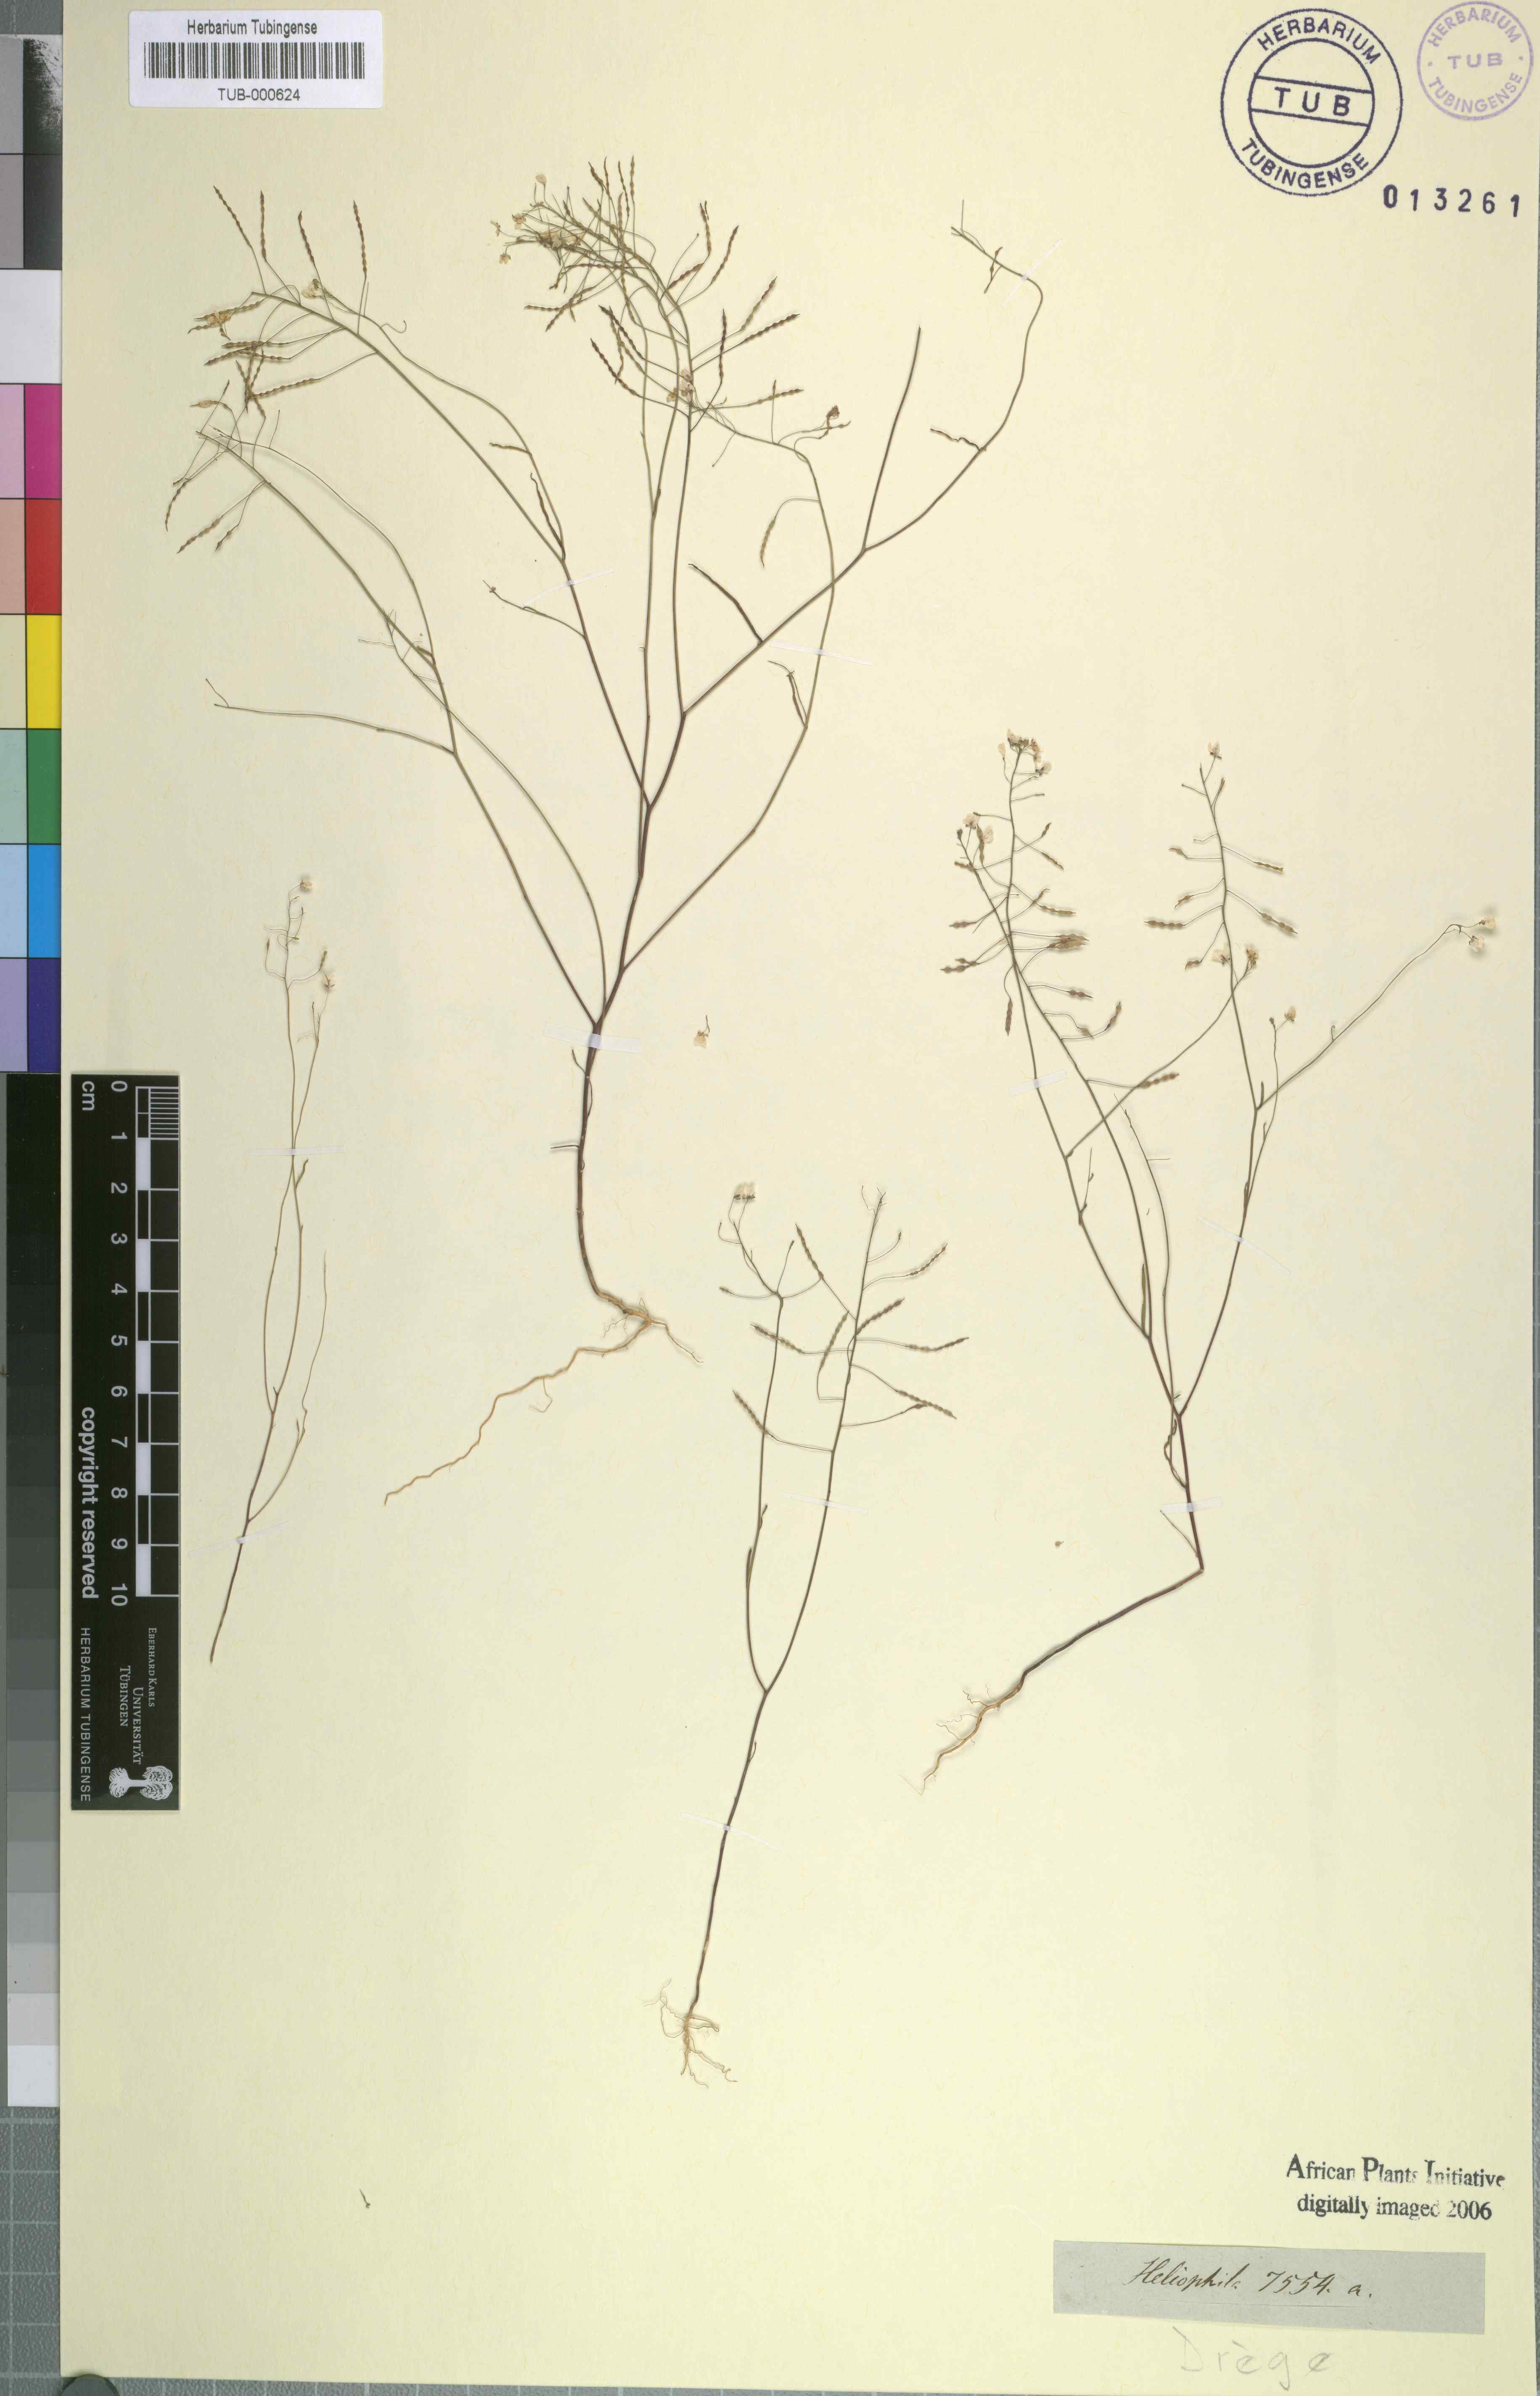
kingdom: Plantae
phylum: Tracheophyta
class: Magnoliopsida
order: Brassicales
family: Brassicaceae
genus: Heliophila
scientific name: Heliophila
